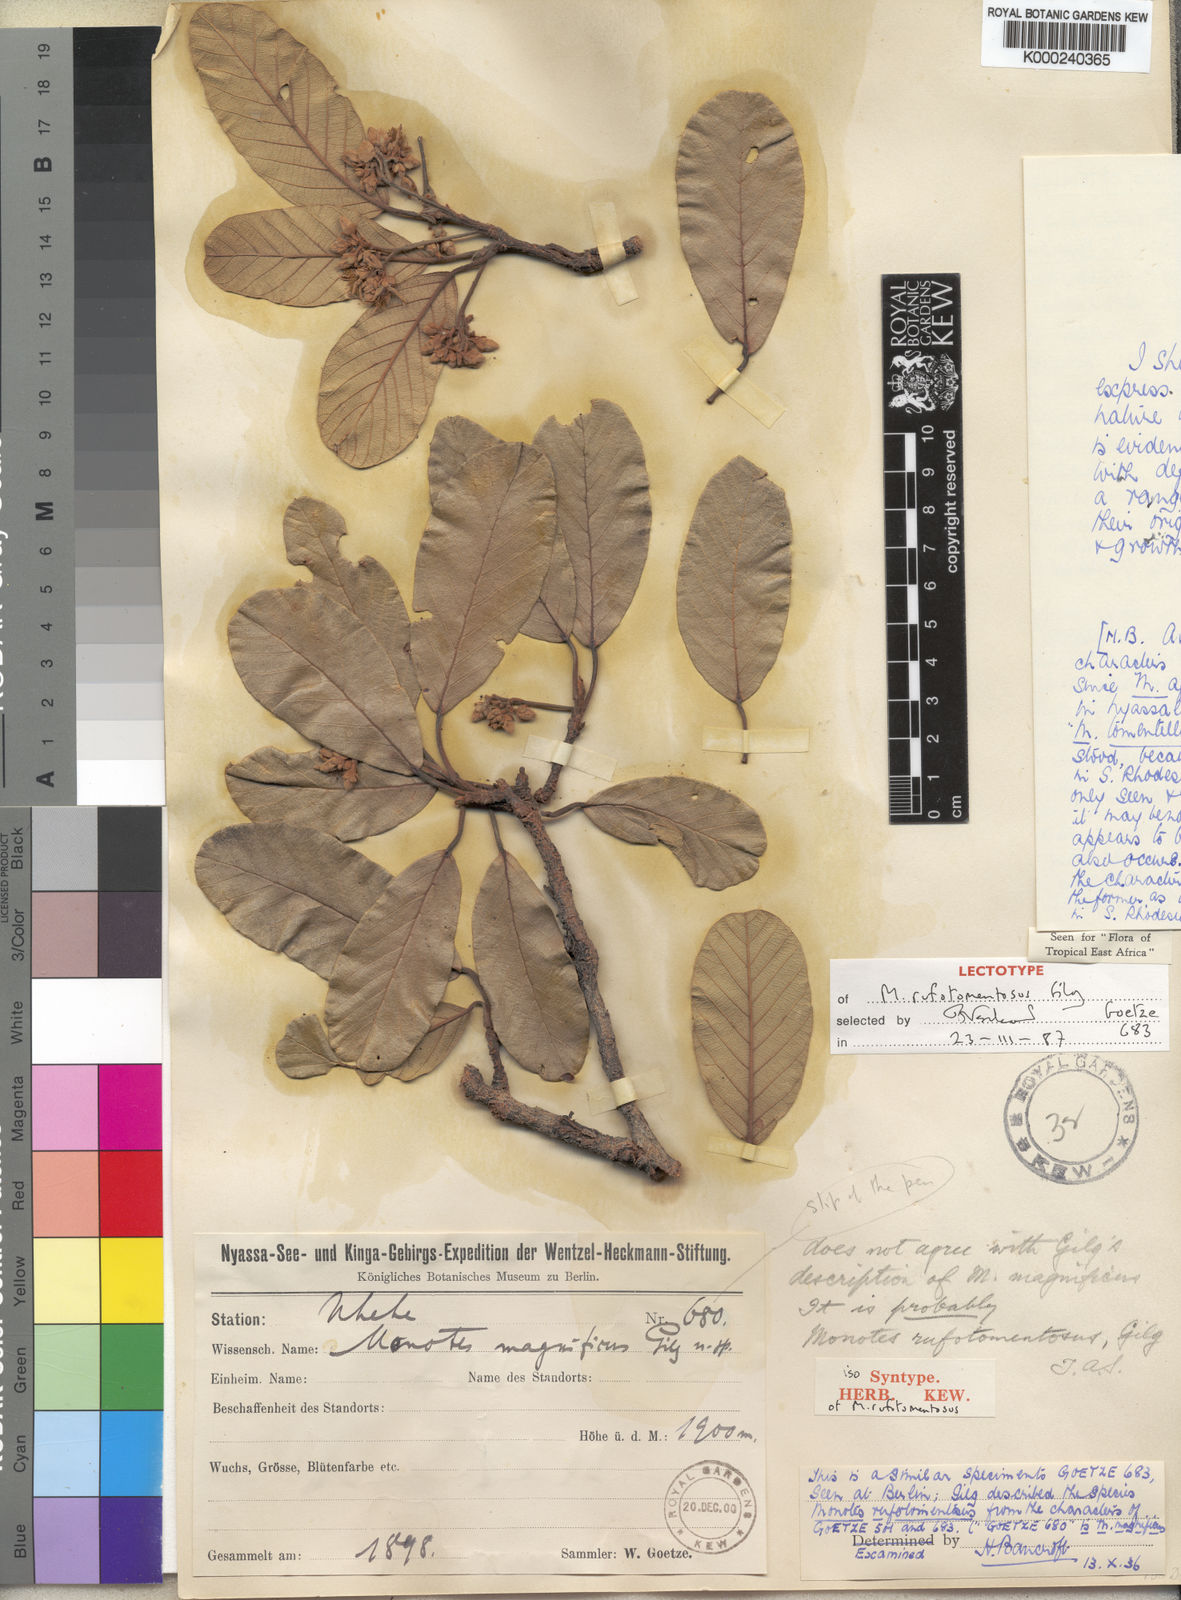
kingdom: Plantae
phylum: Tracheophyta
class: Magnoliopsida
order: Malvales
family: Dipterocarpaceae
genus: Monotes
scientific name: Monotes rufotomentosus
